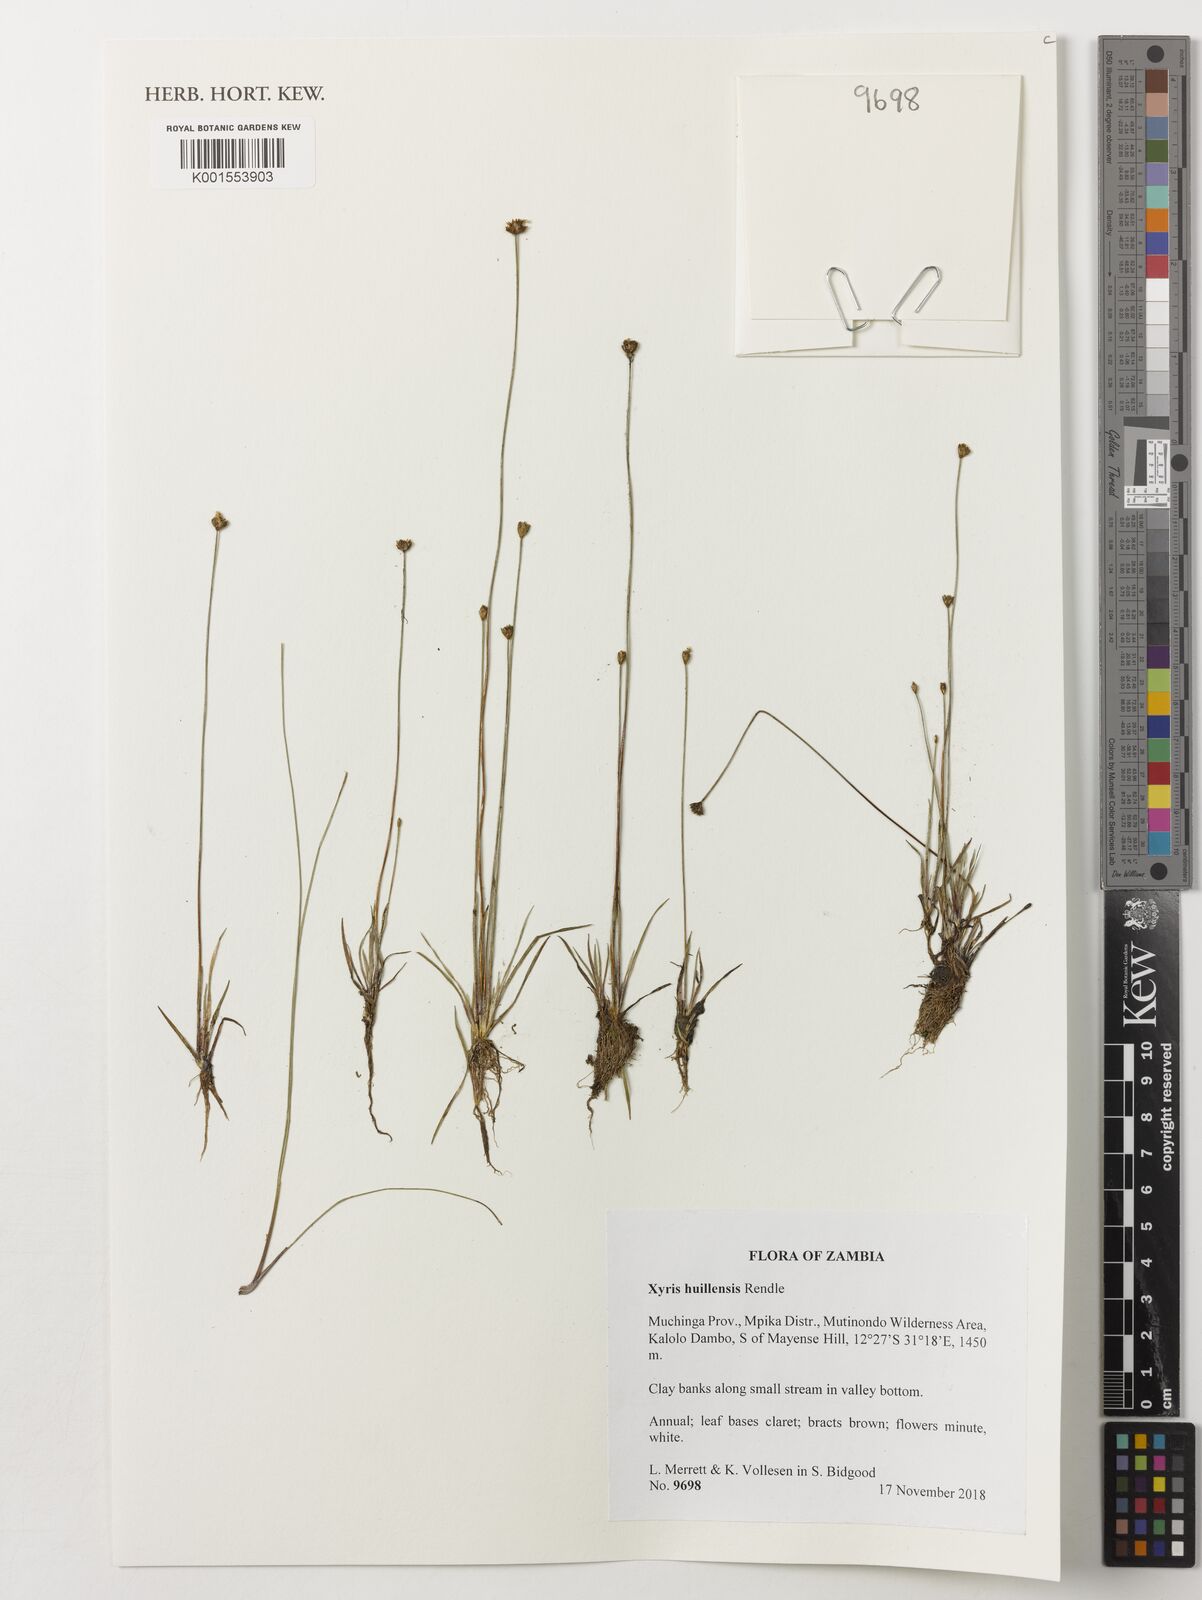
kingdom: Plantae
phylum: Tracheophyta
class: Liliopsida
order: Poales
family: Xyridaceae
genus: Xyris
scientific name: Xyris huillensis
